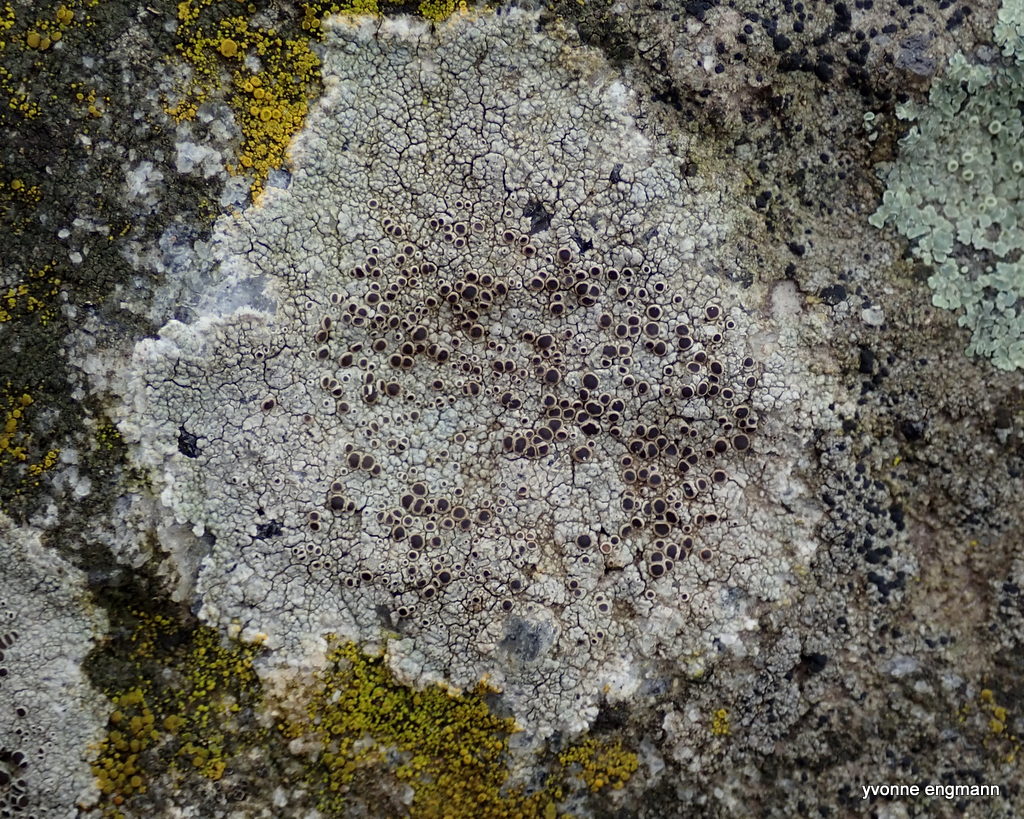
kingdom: Fungi
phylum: Ascomycota
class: Lecanoromycetes
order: Lecanorales
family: Lecanoraceae
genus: Lecanora
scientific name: Lecanora campestris
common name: mur-kantskivelav
